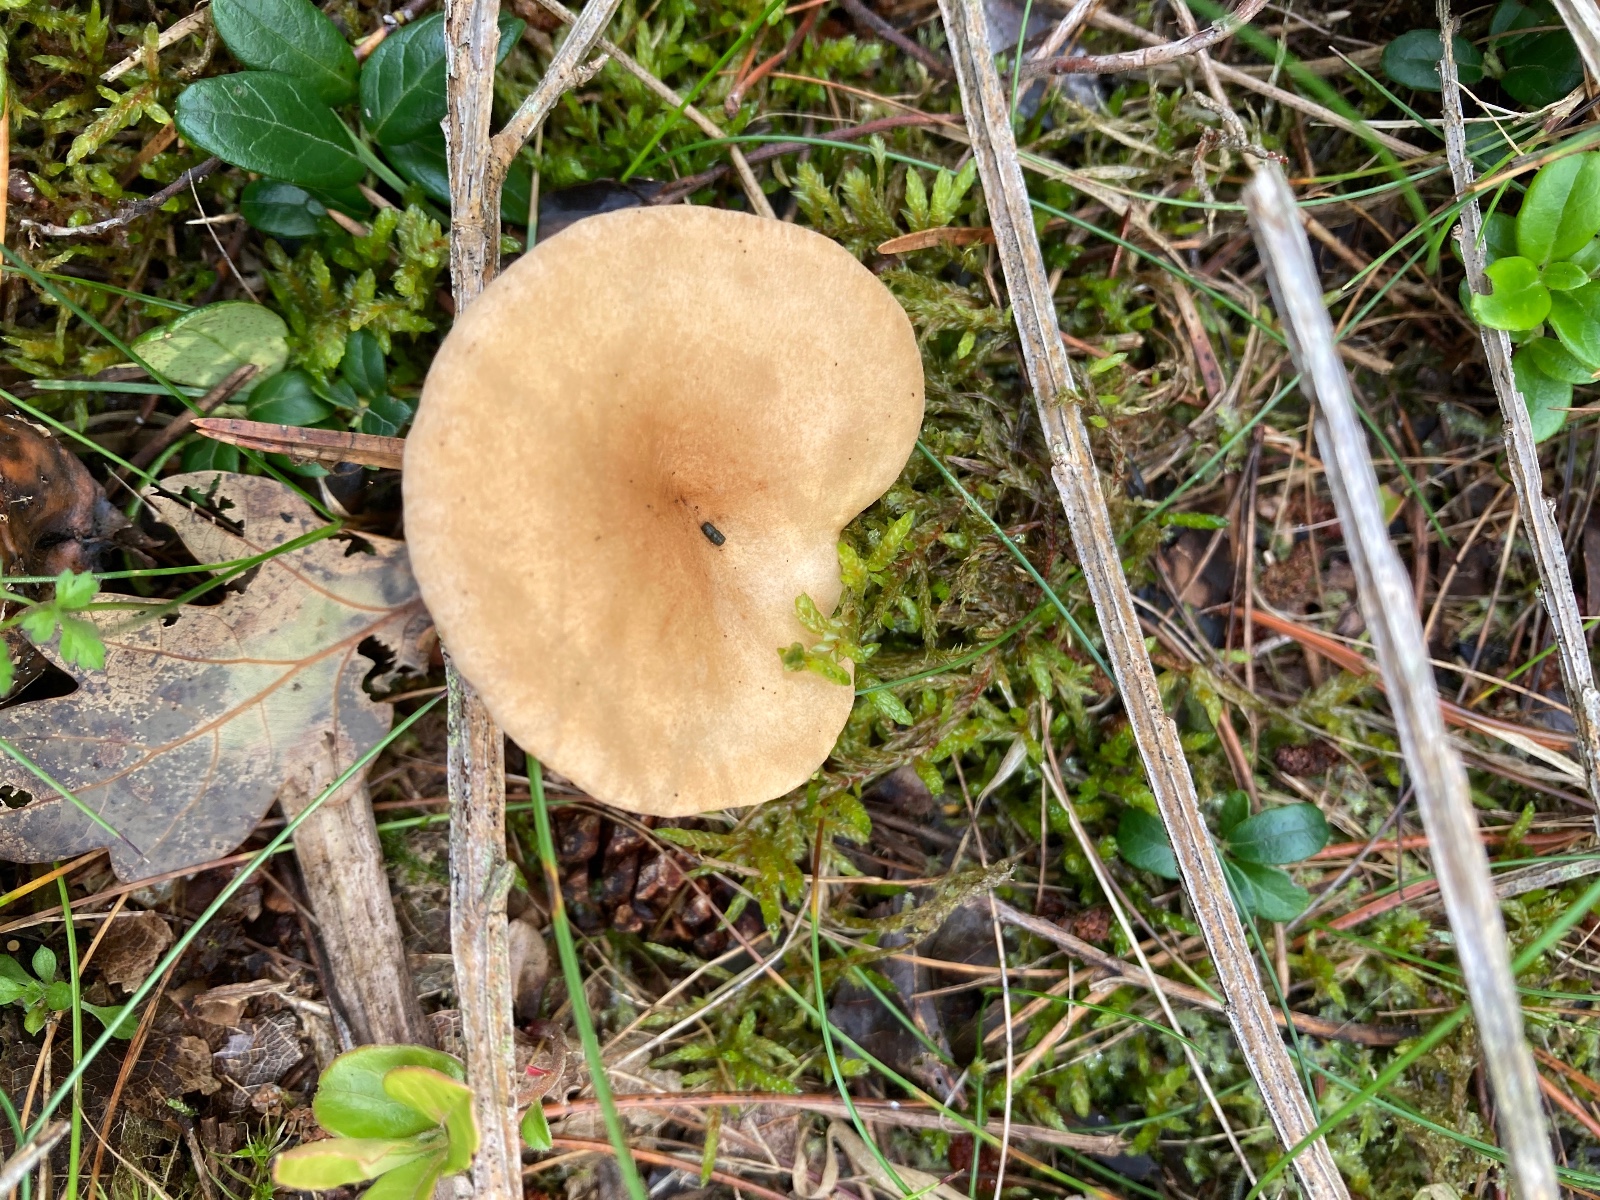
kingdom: Fungi
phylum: Basidiomycota
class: Agaricomycetes
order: Agaricales
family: Tricholomataceae
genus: Infundibulicybe
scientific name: Infundibulicybe squamulosa
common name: småskællet tragthat
